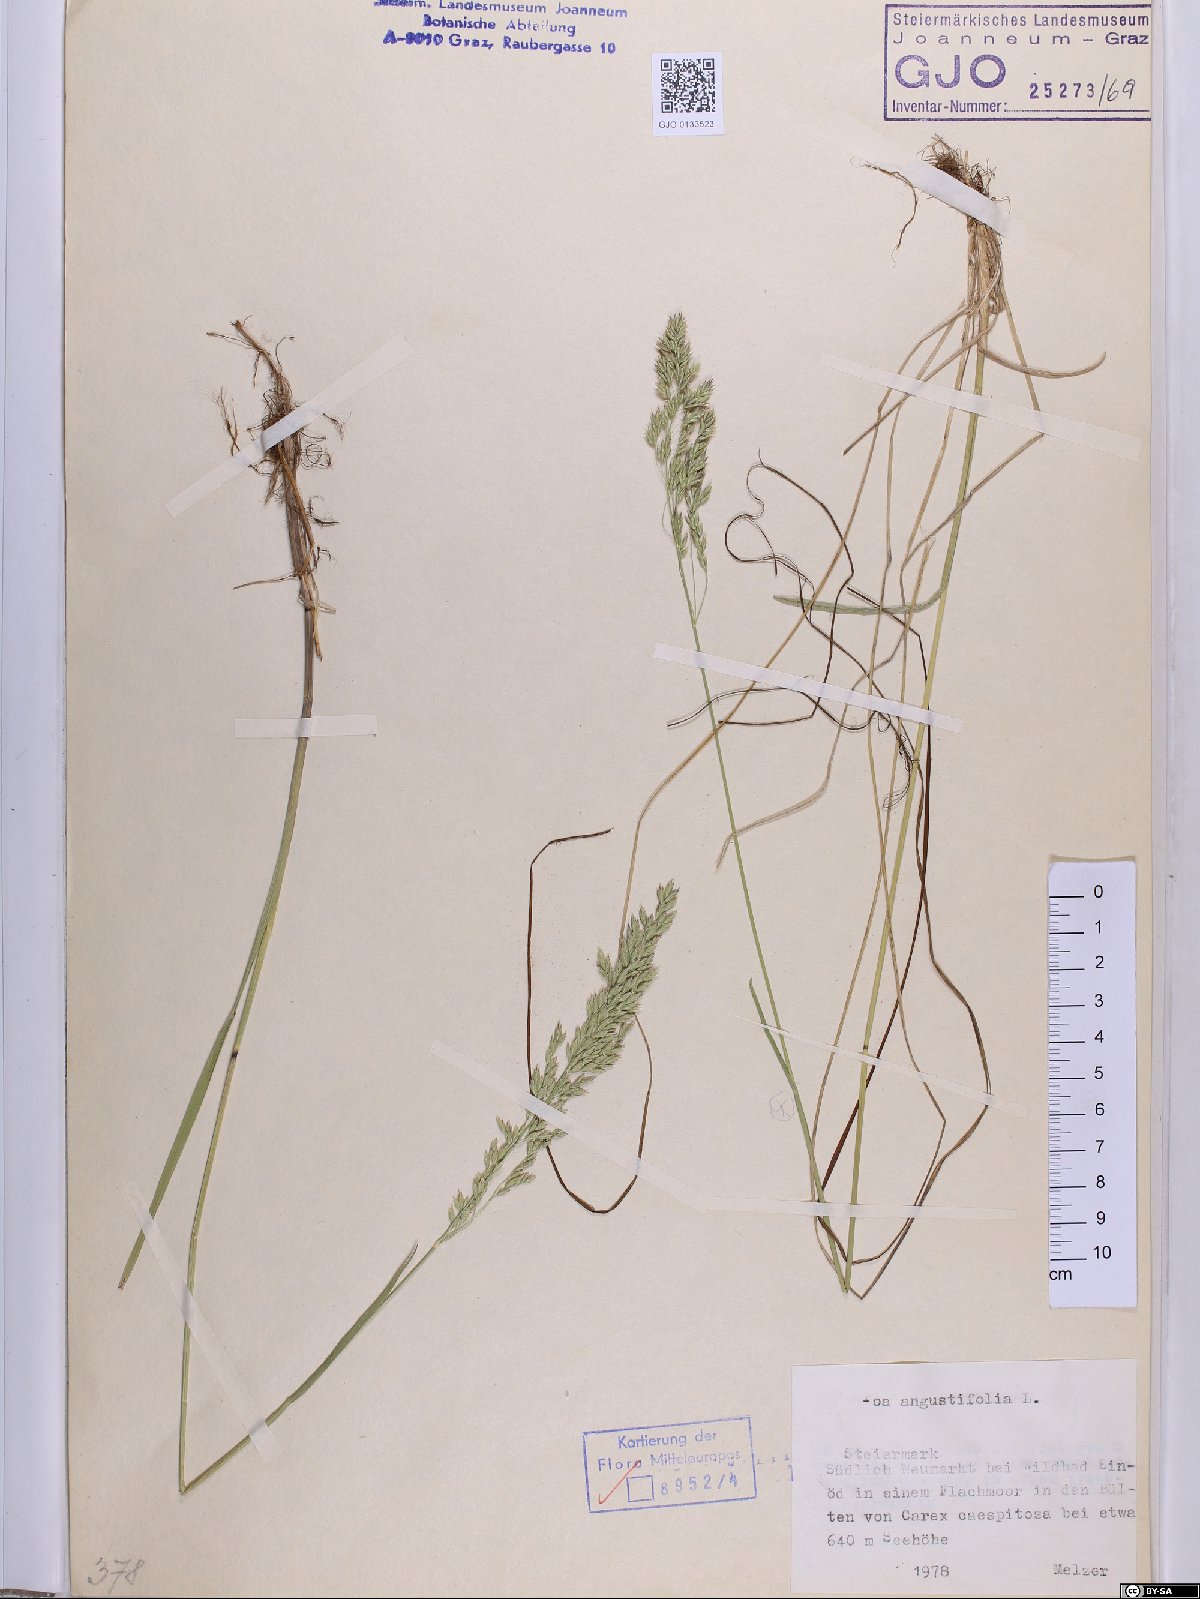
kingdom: Plantae
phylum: Tracheophyta
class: Liliopsida
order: Poales
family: Poaceae
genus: Poa
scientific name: Poa angustifolia
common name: Narrow-leaved meadow-grass
